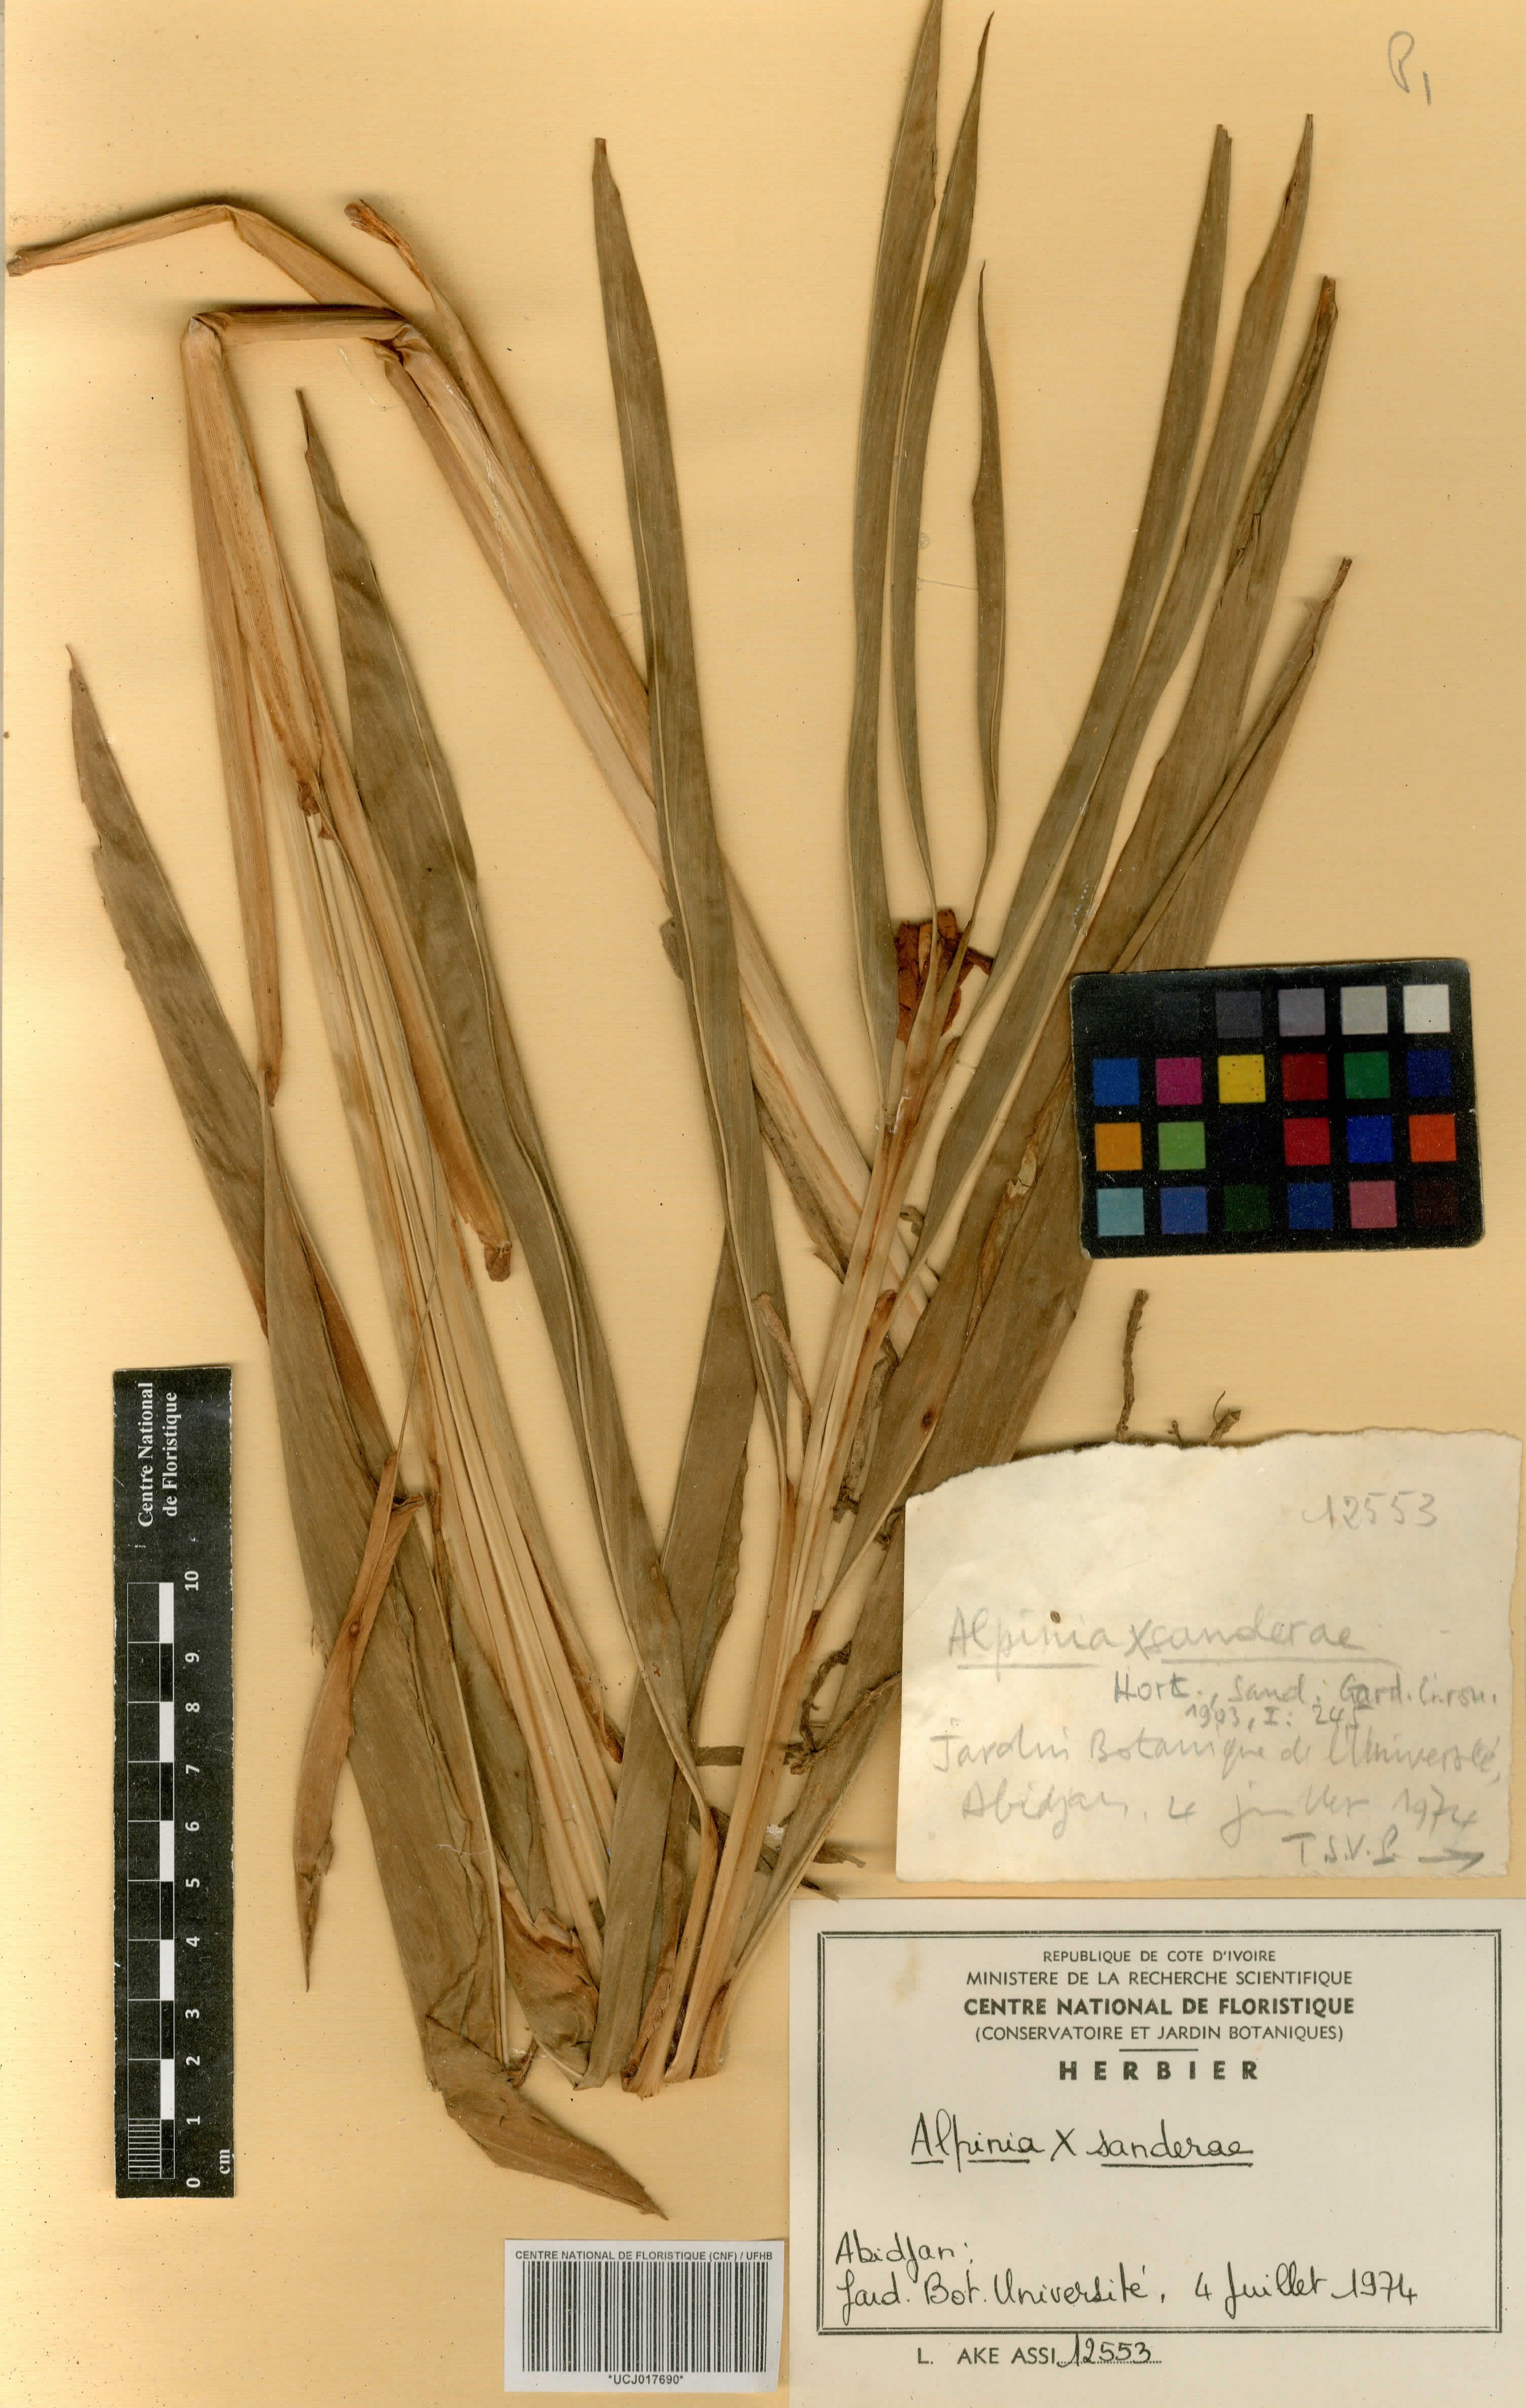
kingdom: Plantae
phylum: Tracheophyta
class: Liliopsida
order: Zingiberales
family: Zingiberaceae
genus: Alpinia
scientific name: Alpinia vittata
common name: Variegate-ginger
